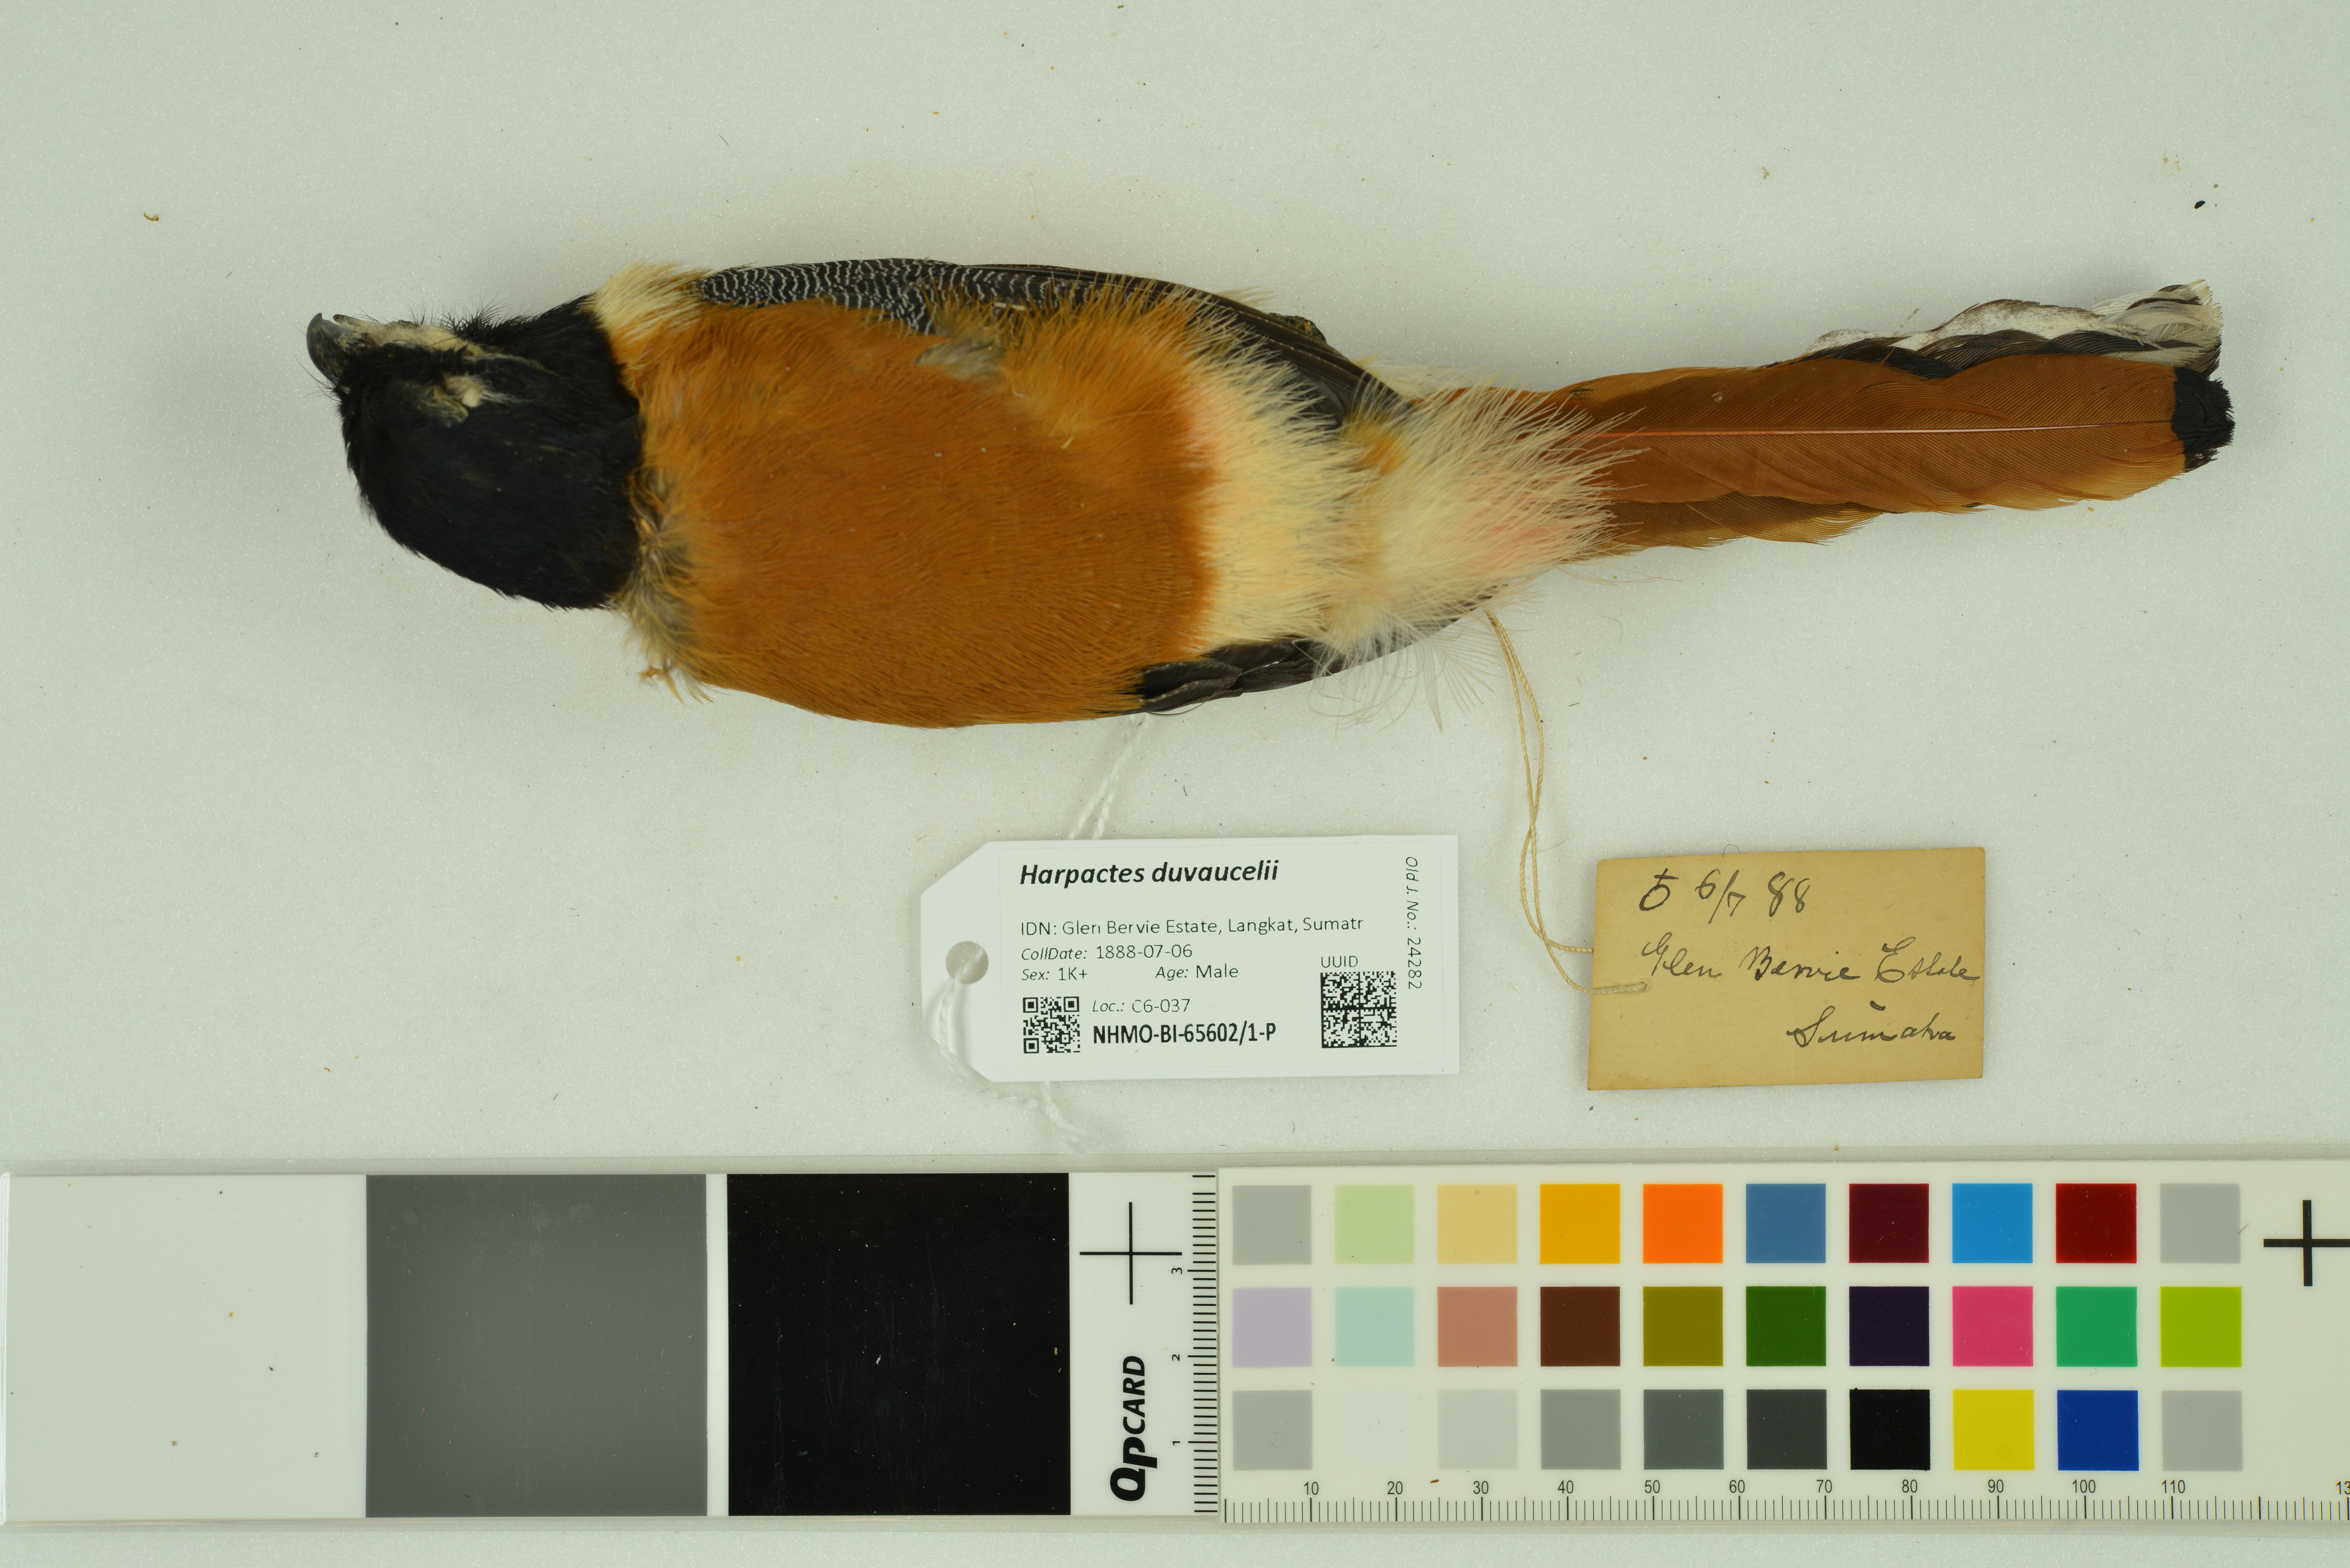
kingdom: Animalia
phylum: Chordata
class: Aves
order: Trogoniformes
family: Trogonidae
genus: Harpactes
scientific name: Harpactes duvaucelii
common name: Scarlet-rumped trogon
